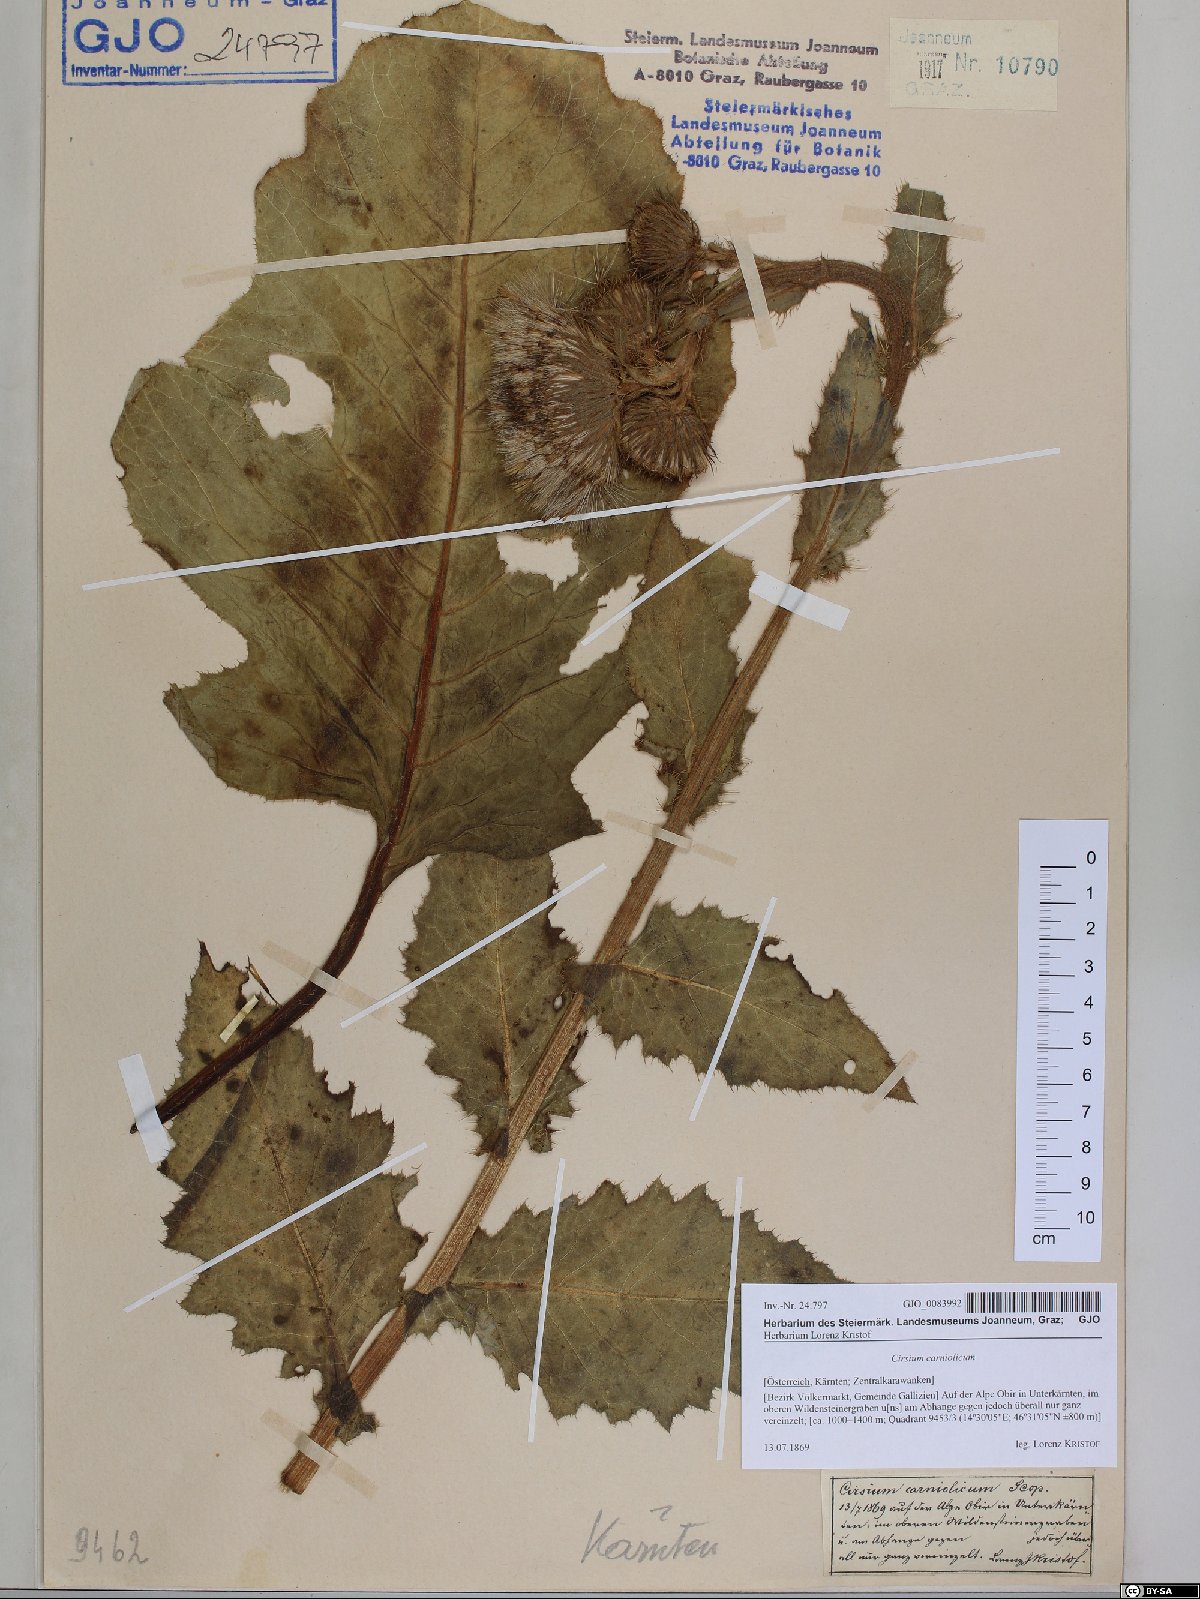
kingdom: Plantae
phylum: Tracheophyta
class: Magnoliopsida
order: Asterales
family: Asteraceae
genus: Cirsium
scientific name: Cirsium carniolicum
